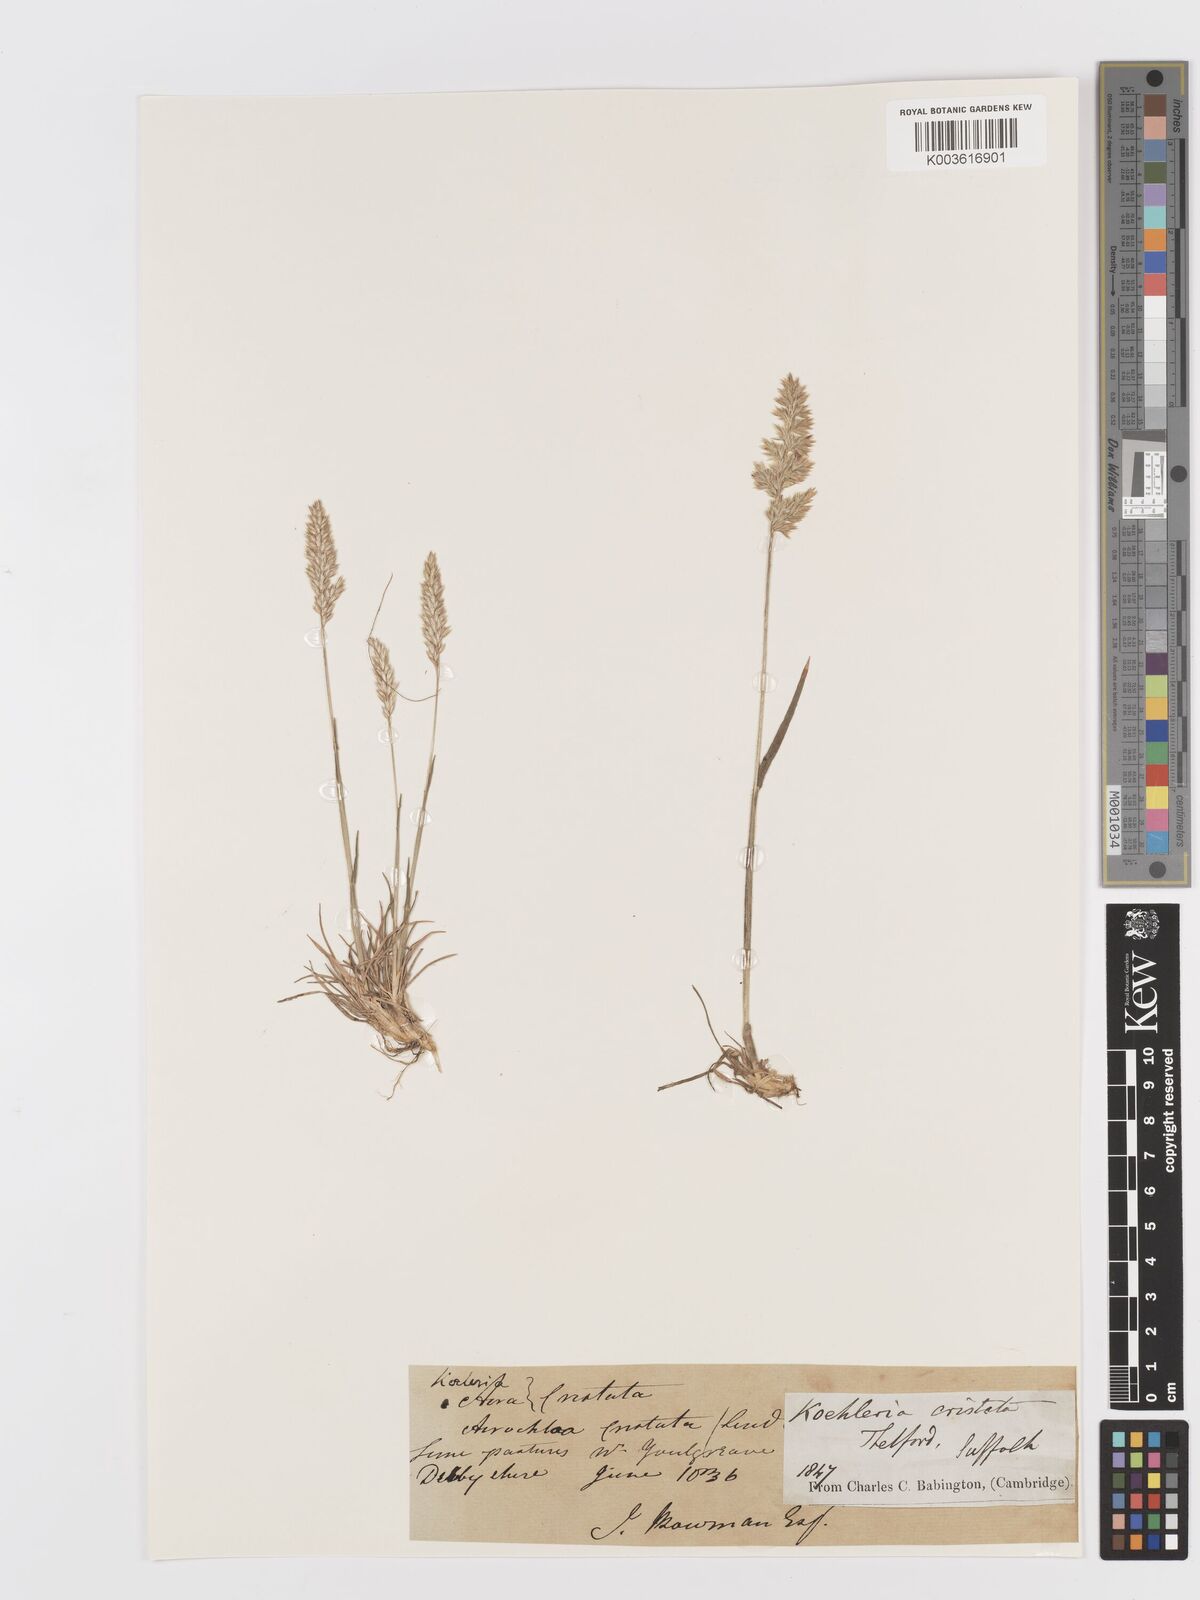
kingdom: Plantae
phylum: Tracheophyta
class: Liliopsida
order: Poales
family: Poaceae
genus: Koeleria
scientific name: Koeleria macrantha
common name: Crested hair-grass
